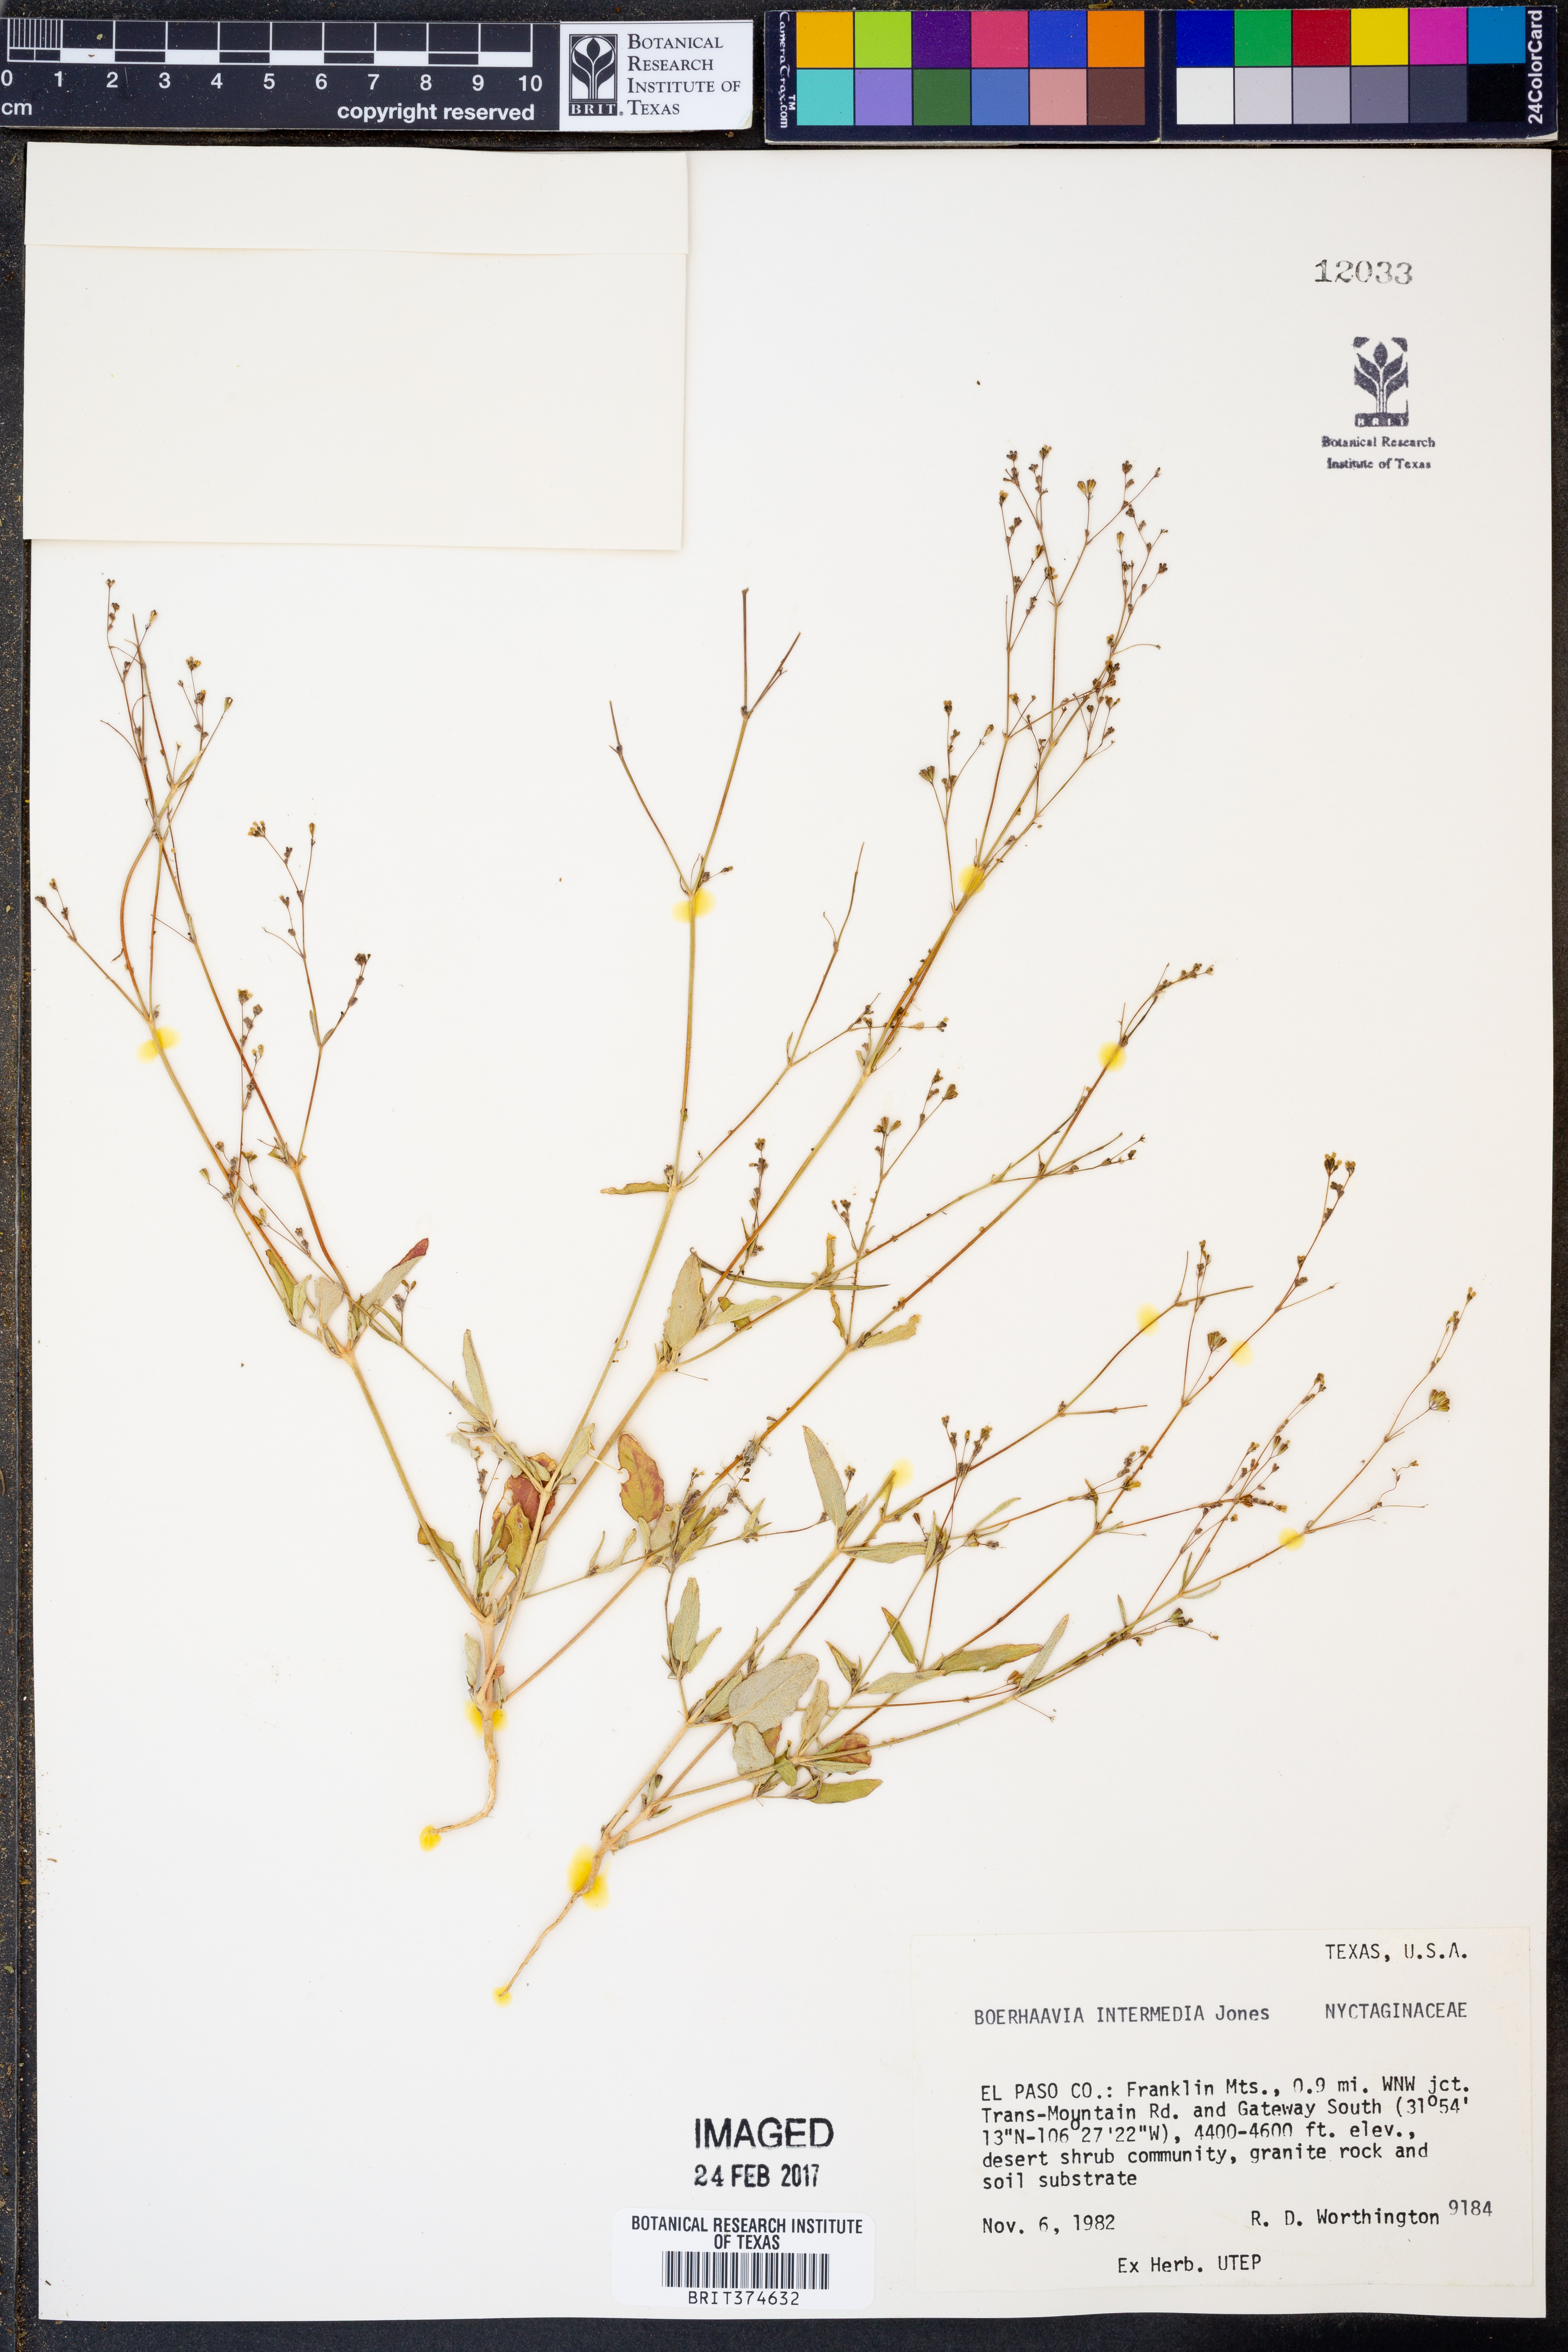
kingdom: Plantae
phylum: Tracheophyta
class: Magnoliopsida
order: Caryophyllales
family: Nyctaginaceae
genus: Boerhavia
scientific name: Boerhavia triquetra
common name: Creeping sticky-stem
